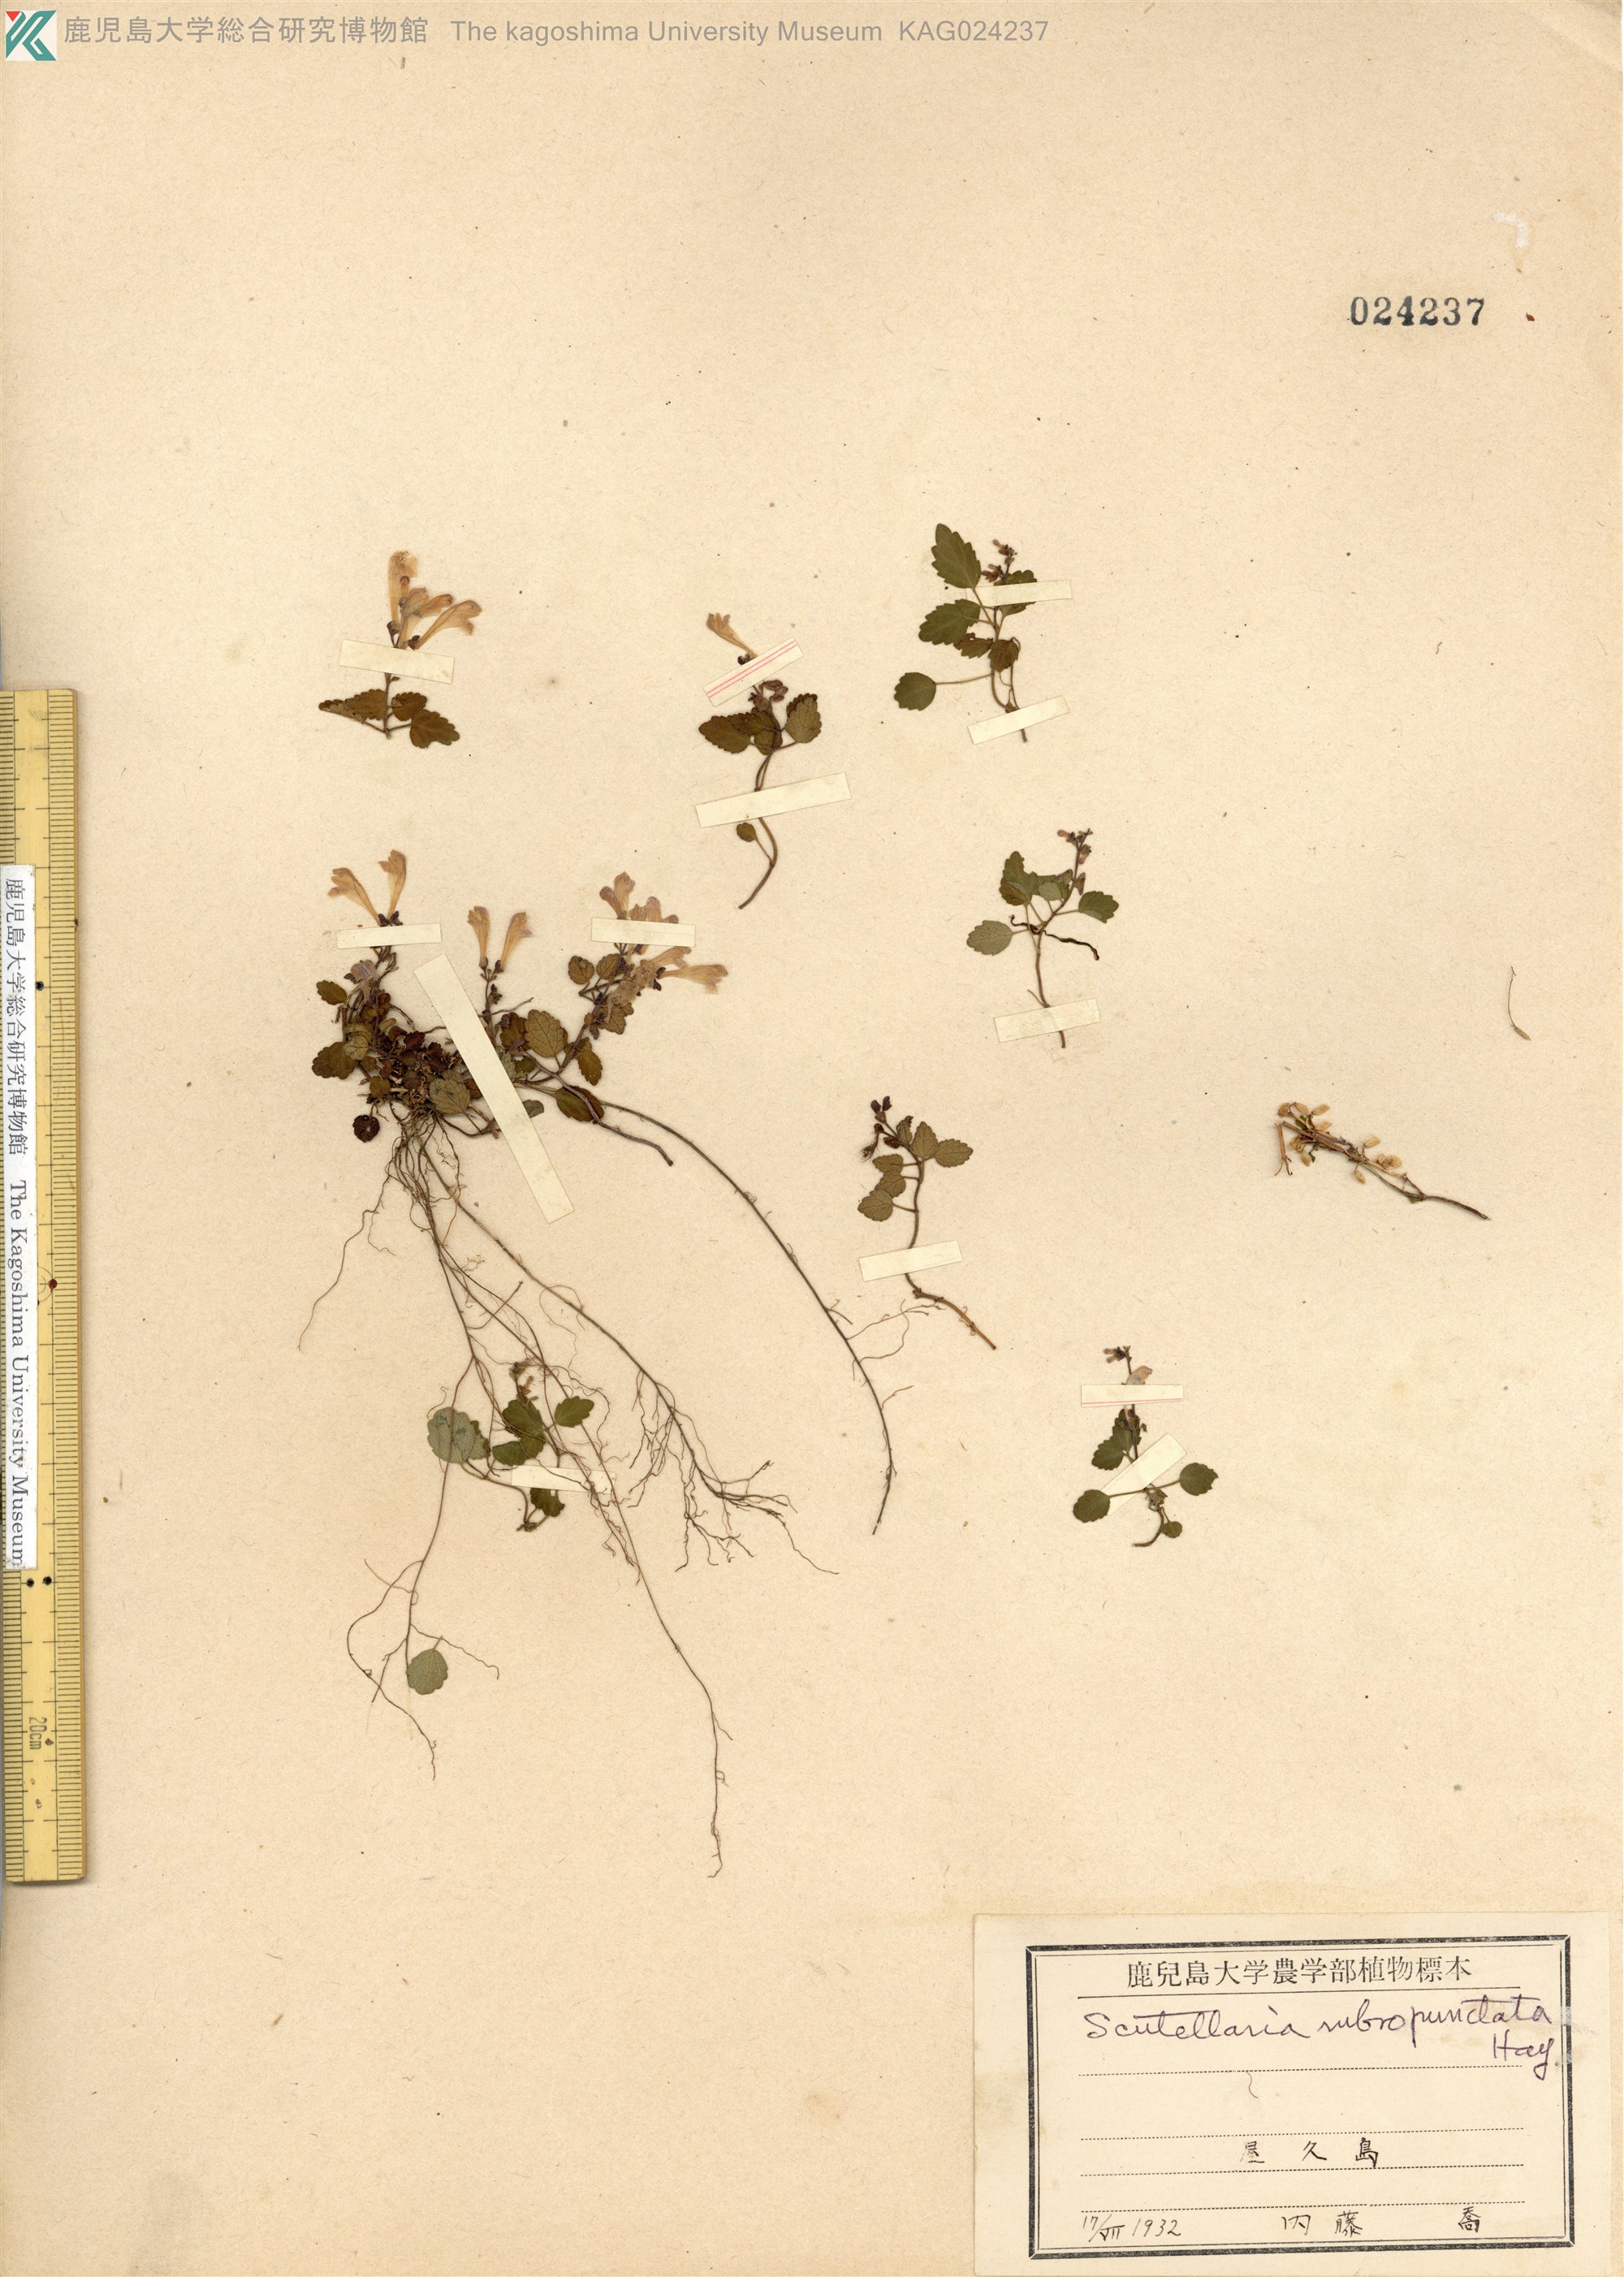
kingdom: Plantae
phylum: Tracheophyta
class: Magnoliopsida
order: Lamiales
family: Lamiaceae
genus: Scutellaria
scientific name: Scutellaria rubropunctata
